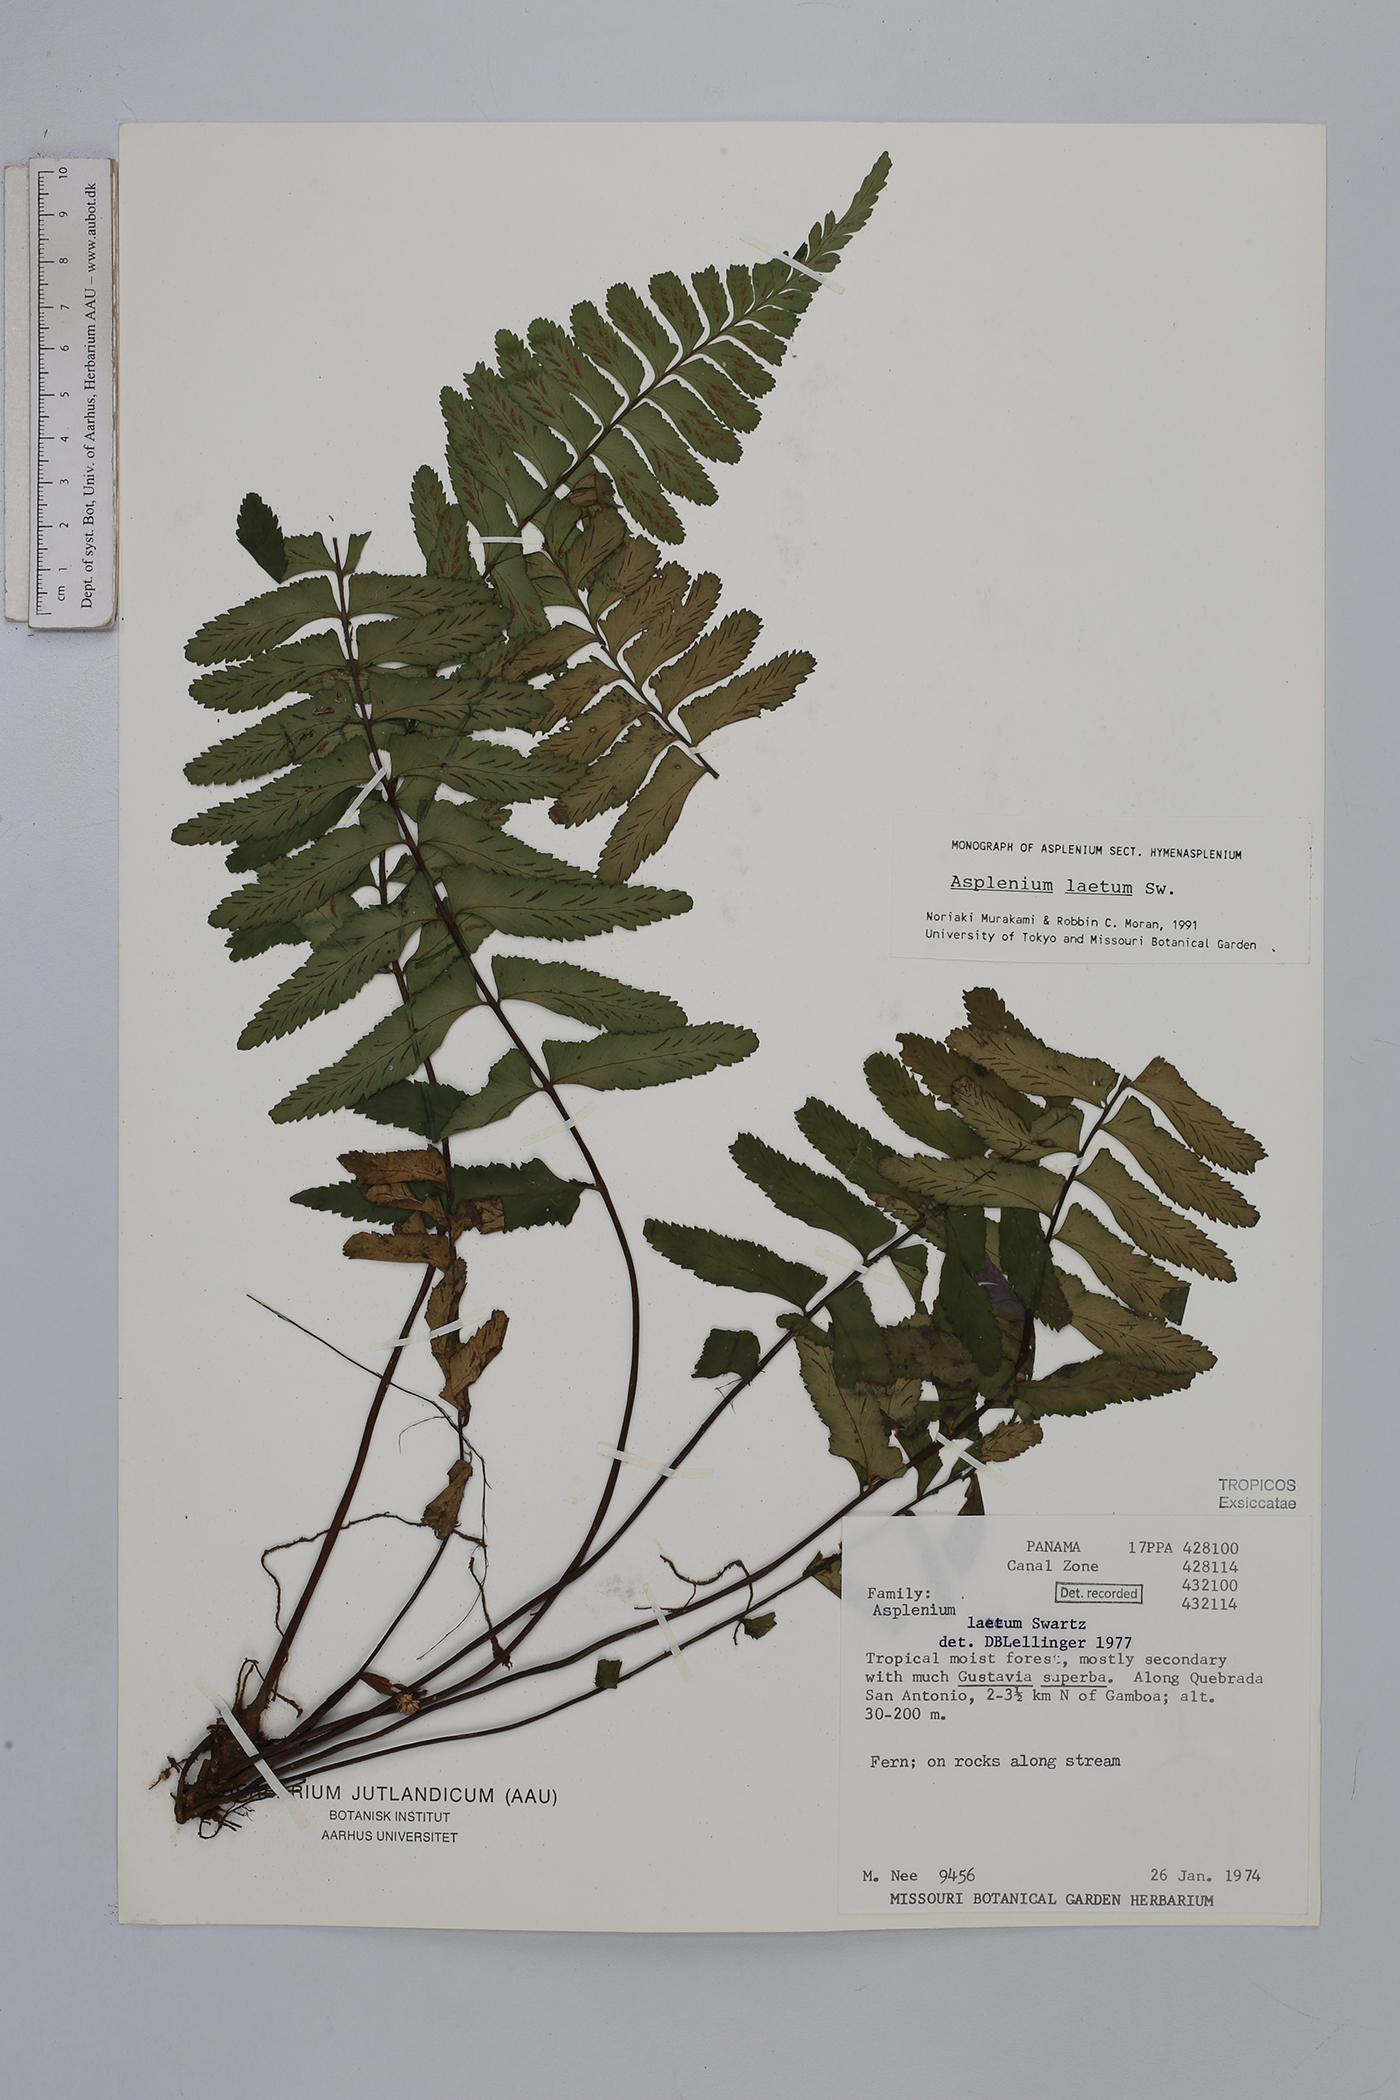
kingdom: Plantae
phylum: Tracheophyta
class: Polypodiopsida
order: Polypodiales
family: Aspleniaceae
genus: Hymenasplenium
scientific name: Hymenasplenium laetum
